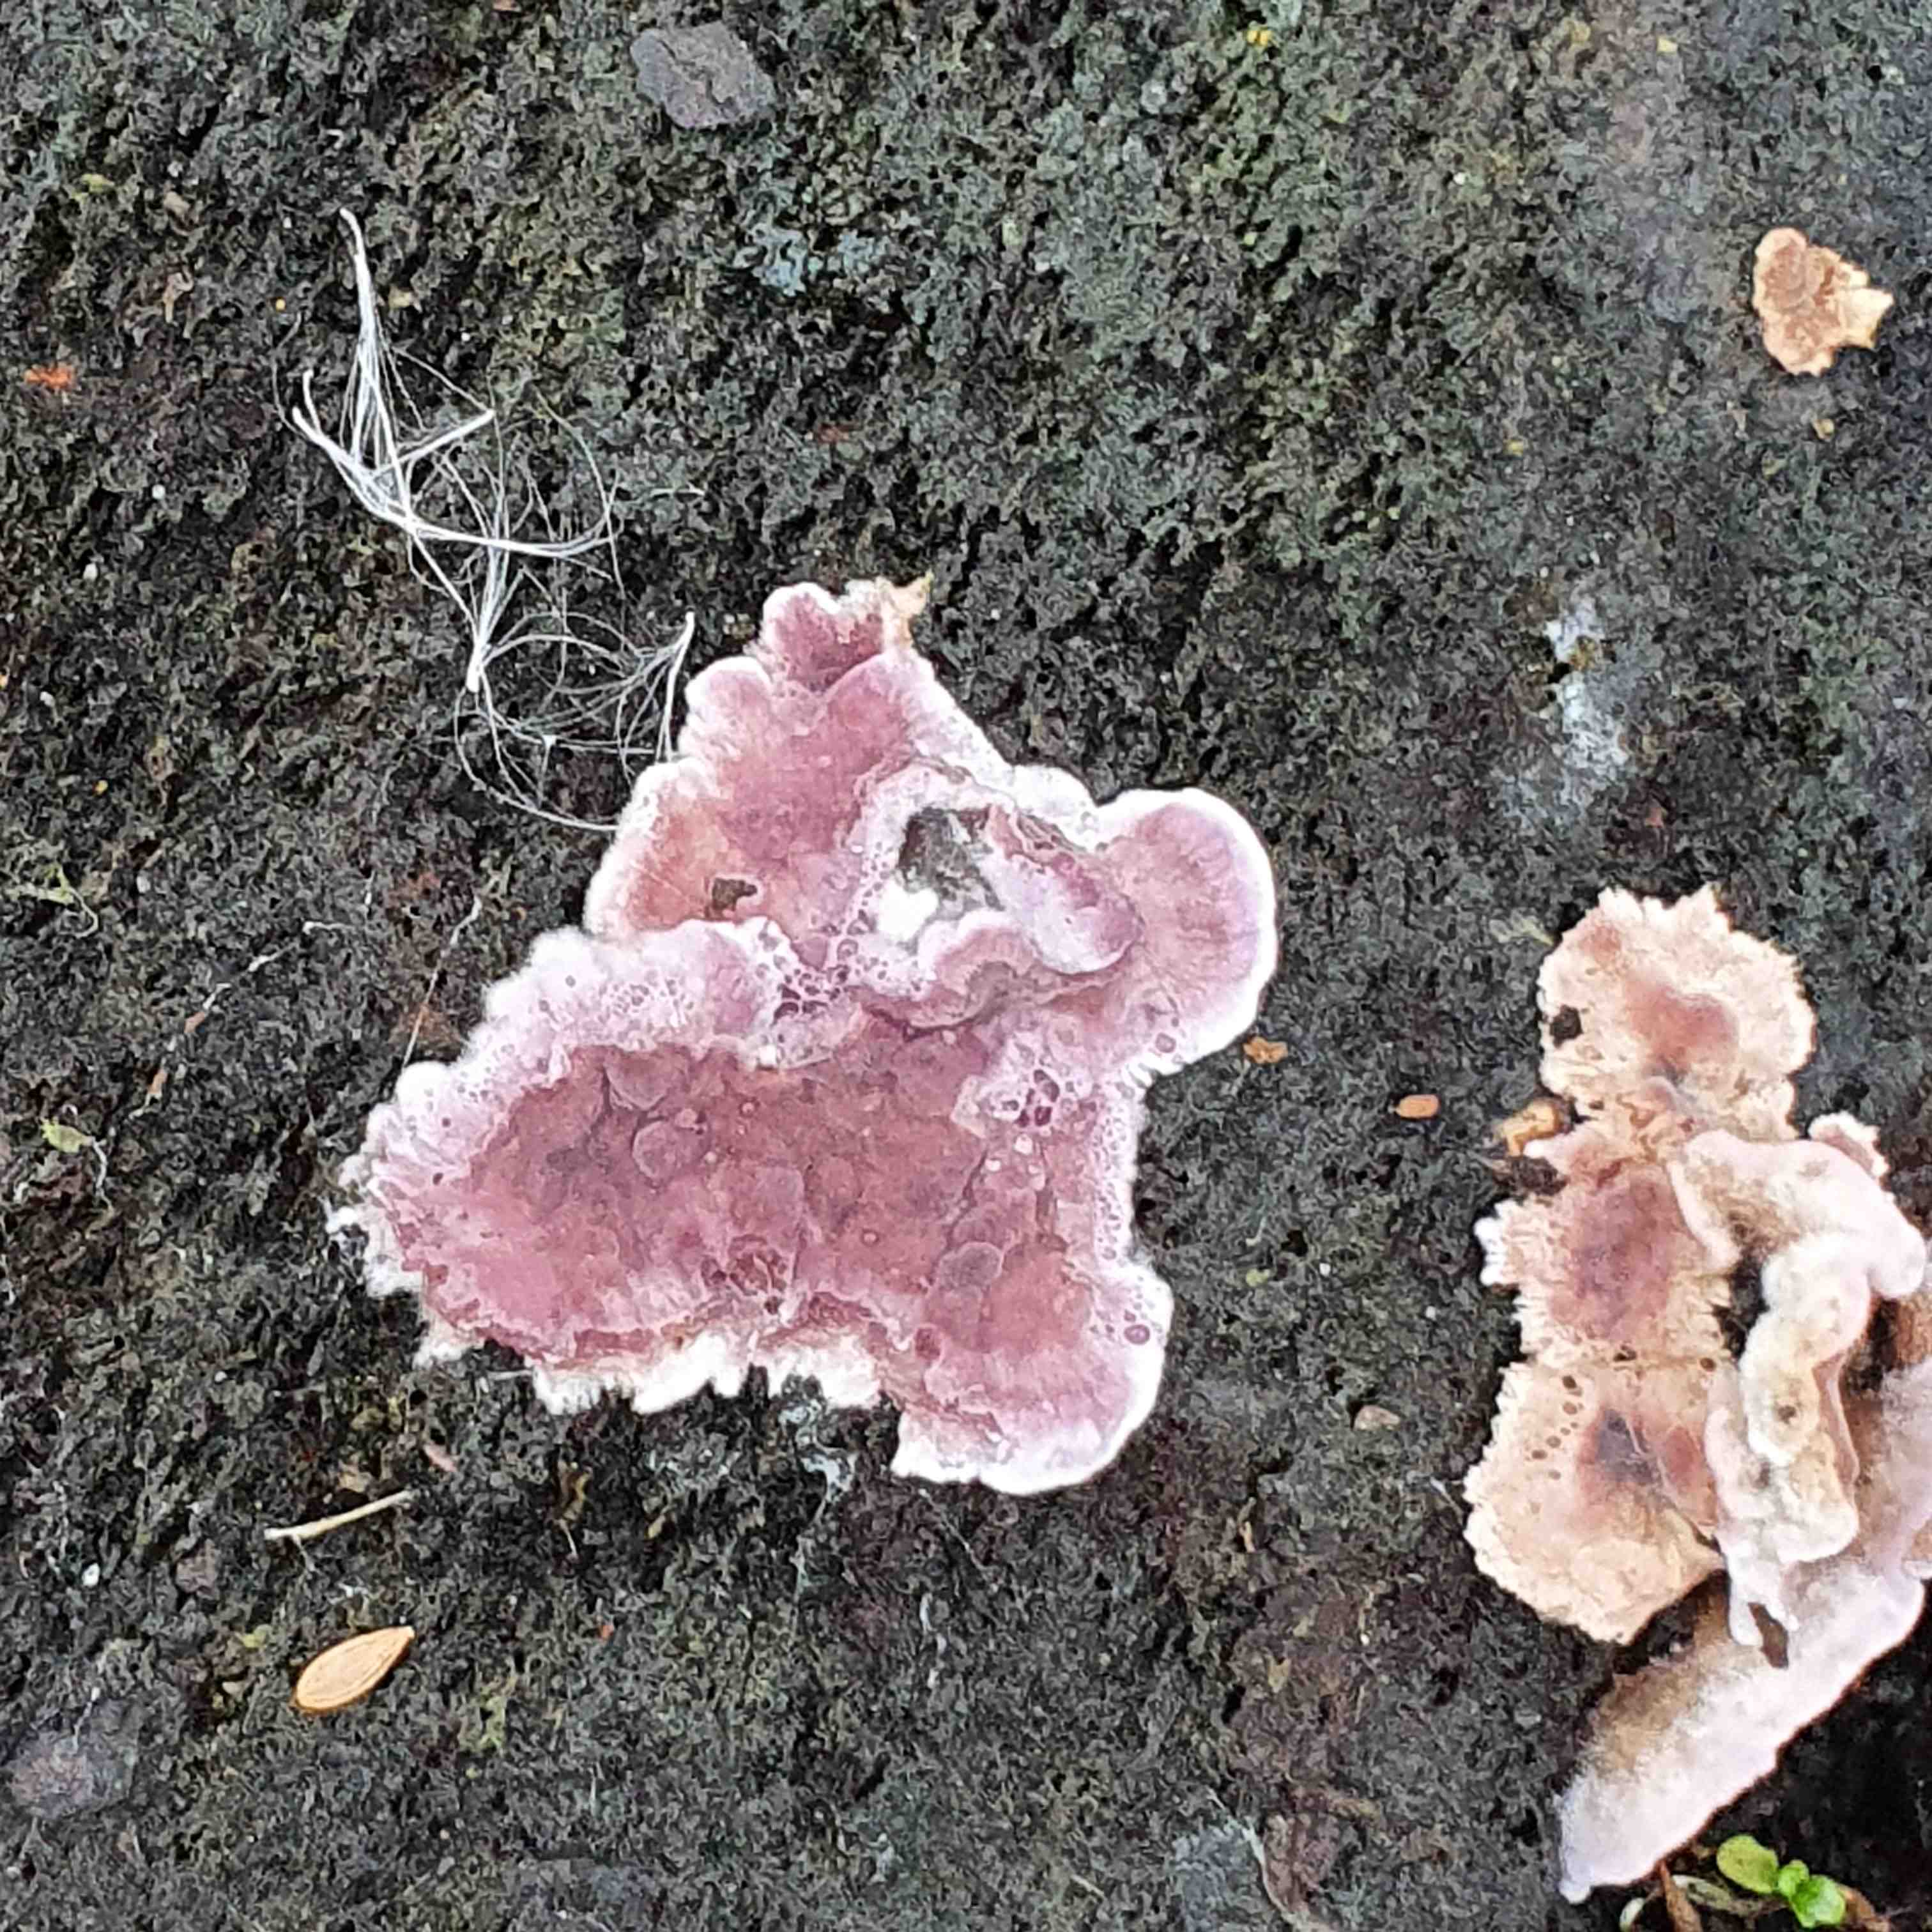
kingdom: Fungi
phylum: Basidiomycota
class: Agaricomycetes
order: Agaricales
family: Cyphellaceae
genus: Chondrostereum
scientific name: Chondrostereum
